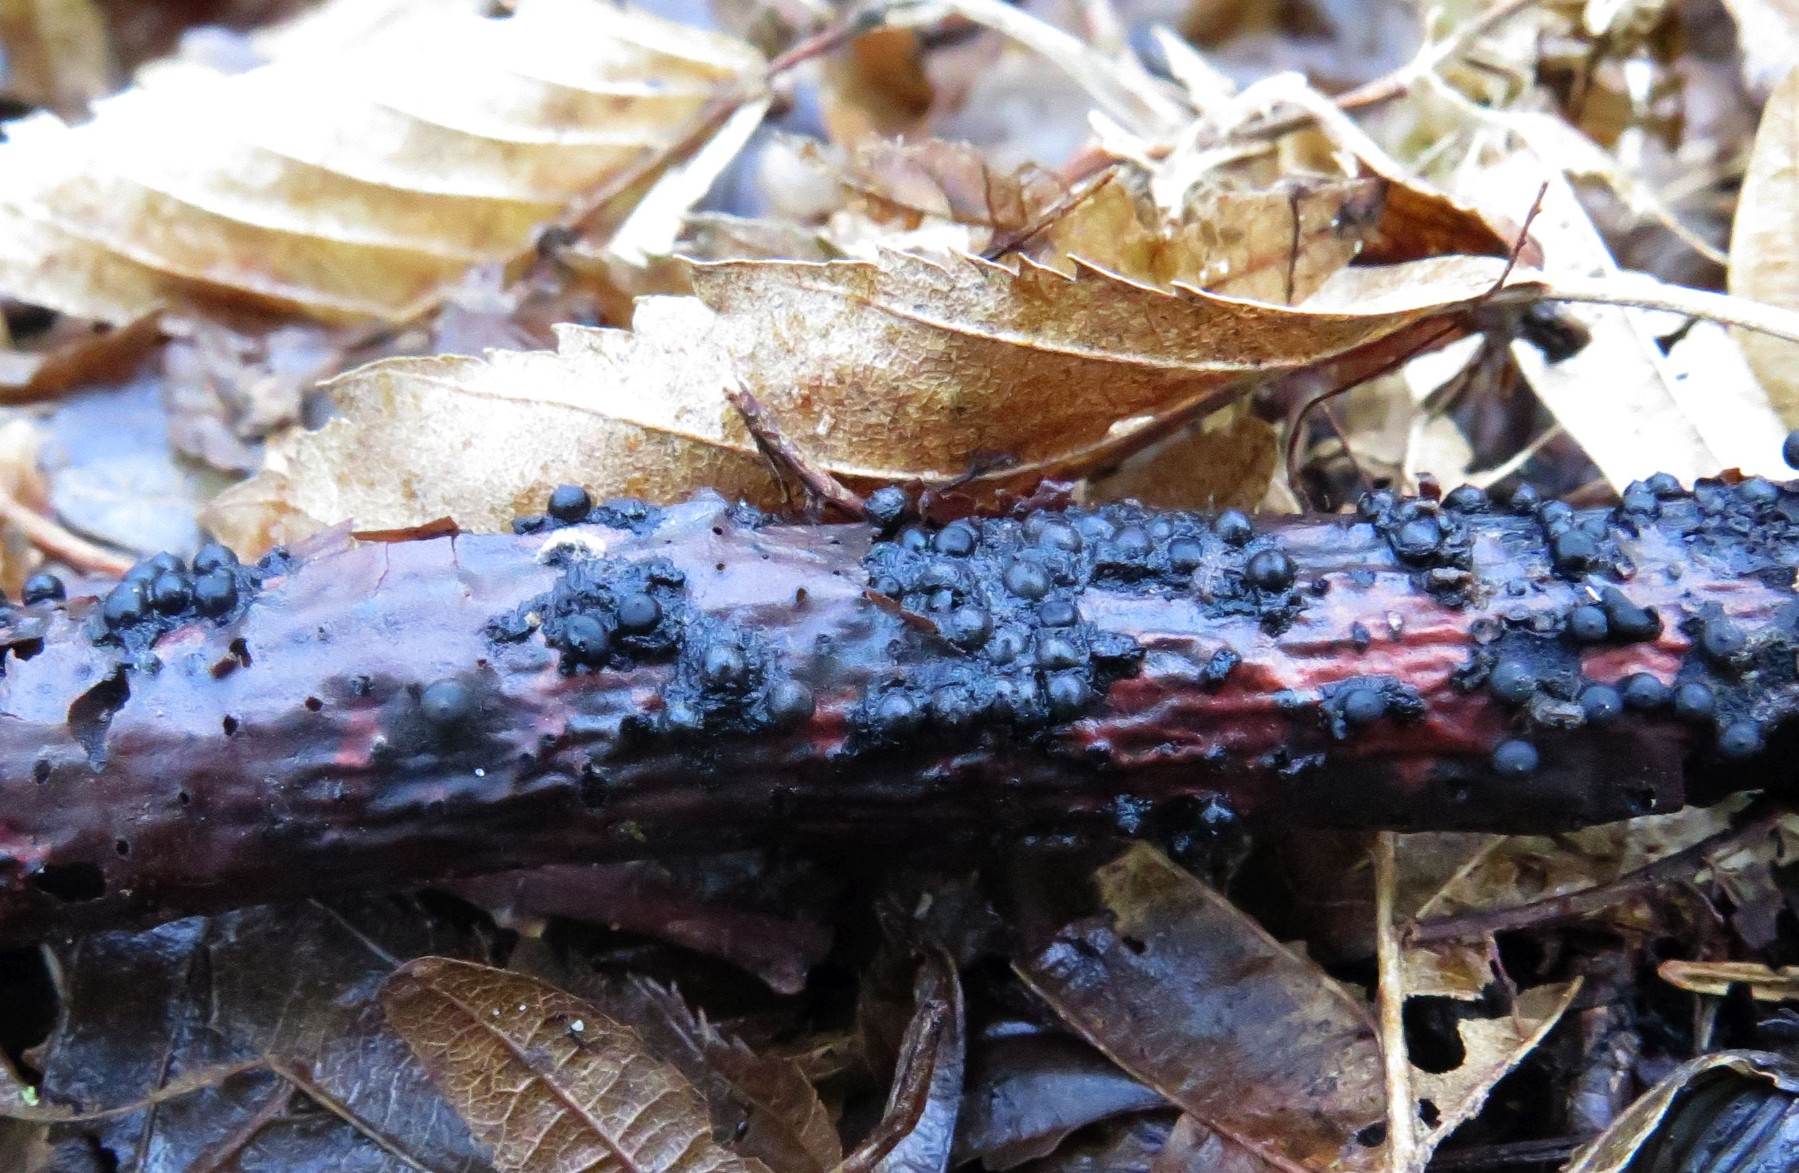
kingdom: Fungi
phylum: Ascomycota
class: Sordariomycetes
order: Xylariales
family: Xylariaceae
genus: Rosellinia
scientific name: Rosellinia aquila
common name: tykskallet kulkaviar
